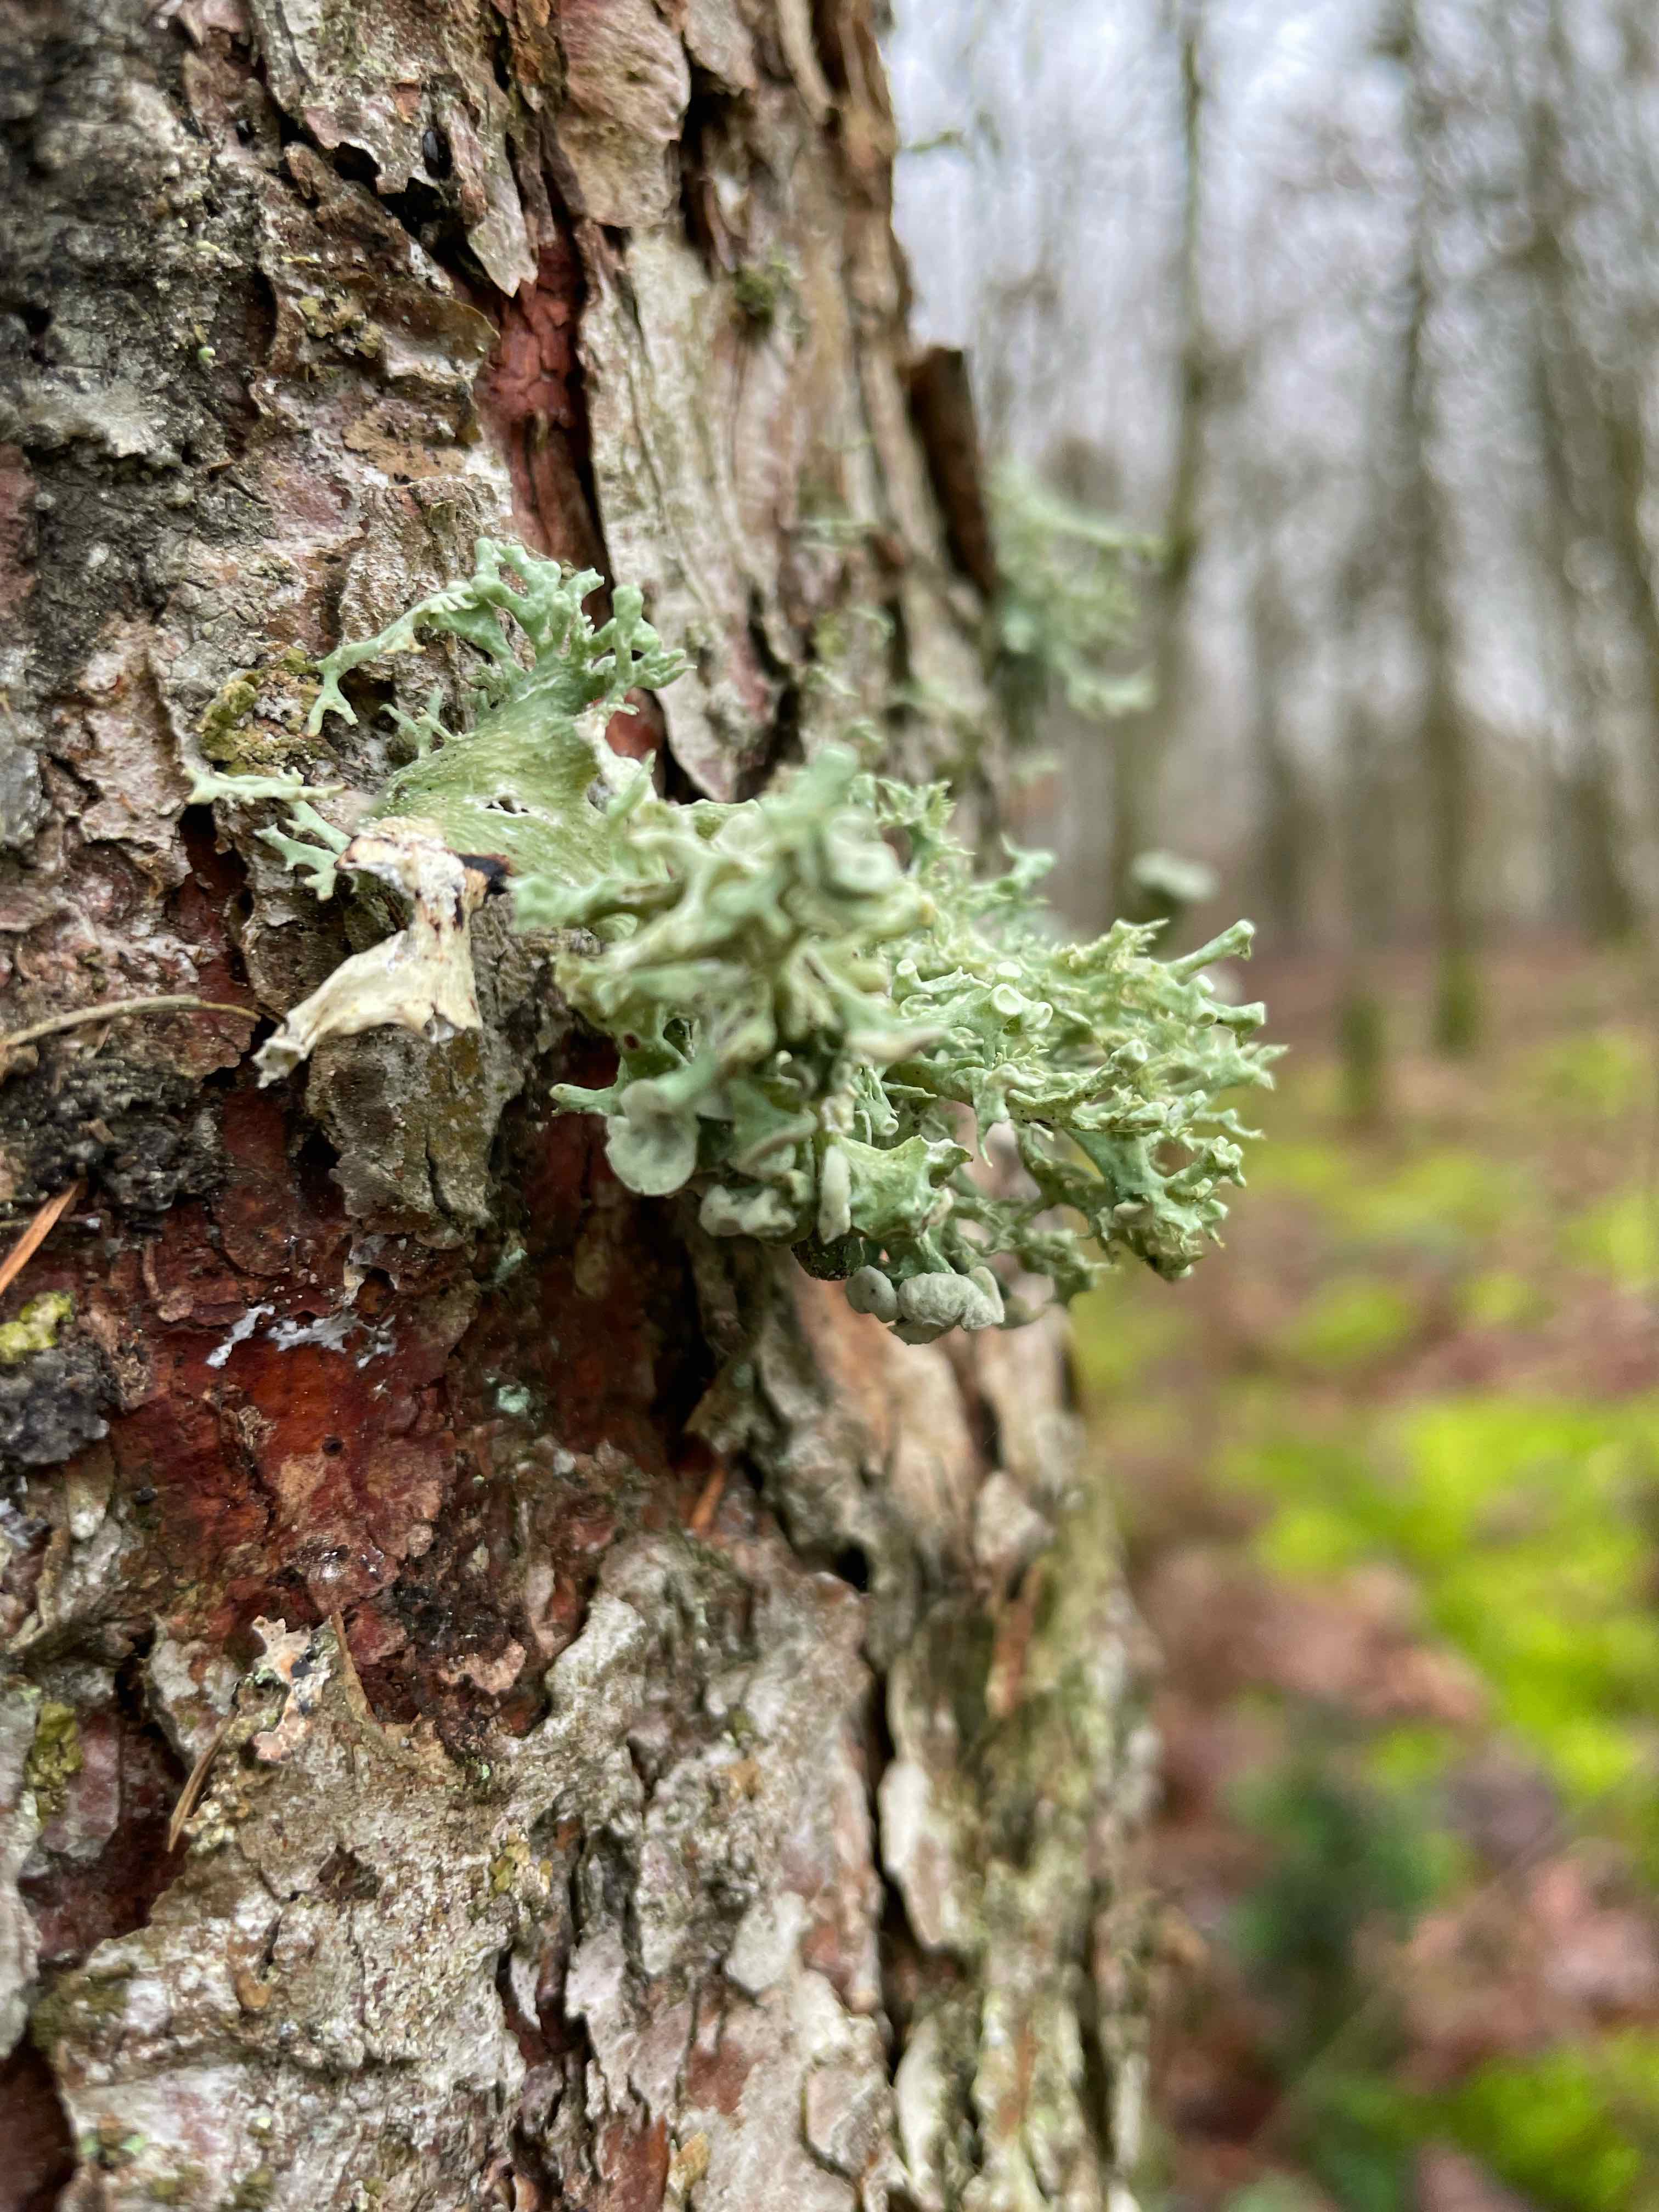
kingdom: Fungi
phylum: Ascomycota
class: Lecanoromycetes
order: Lecanorales
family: Ramalinaceae
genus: Ramalina
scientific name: Ramalina fastigiata
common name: tue-grenlav
